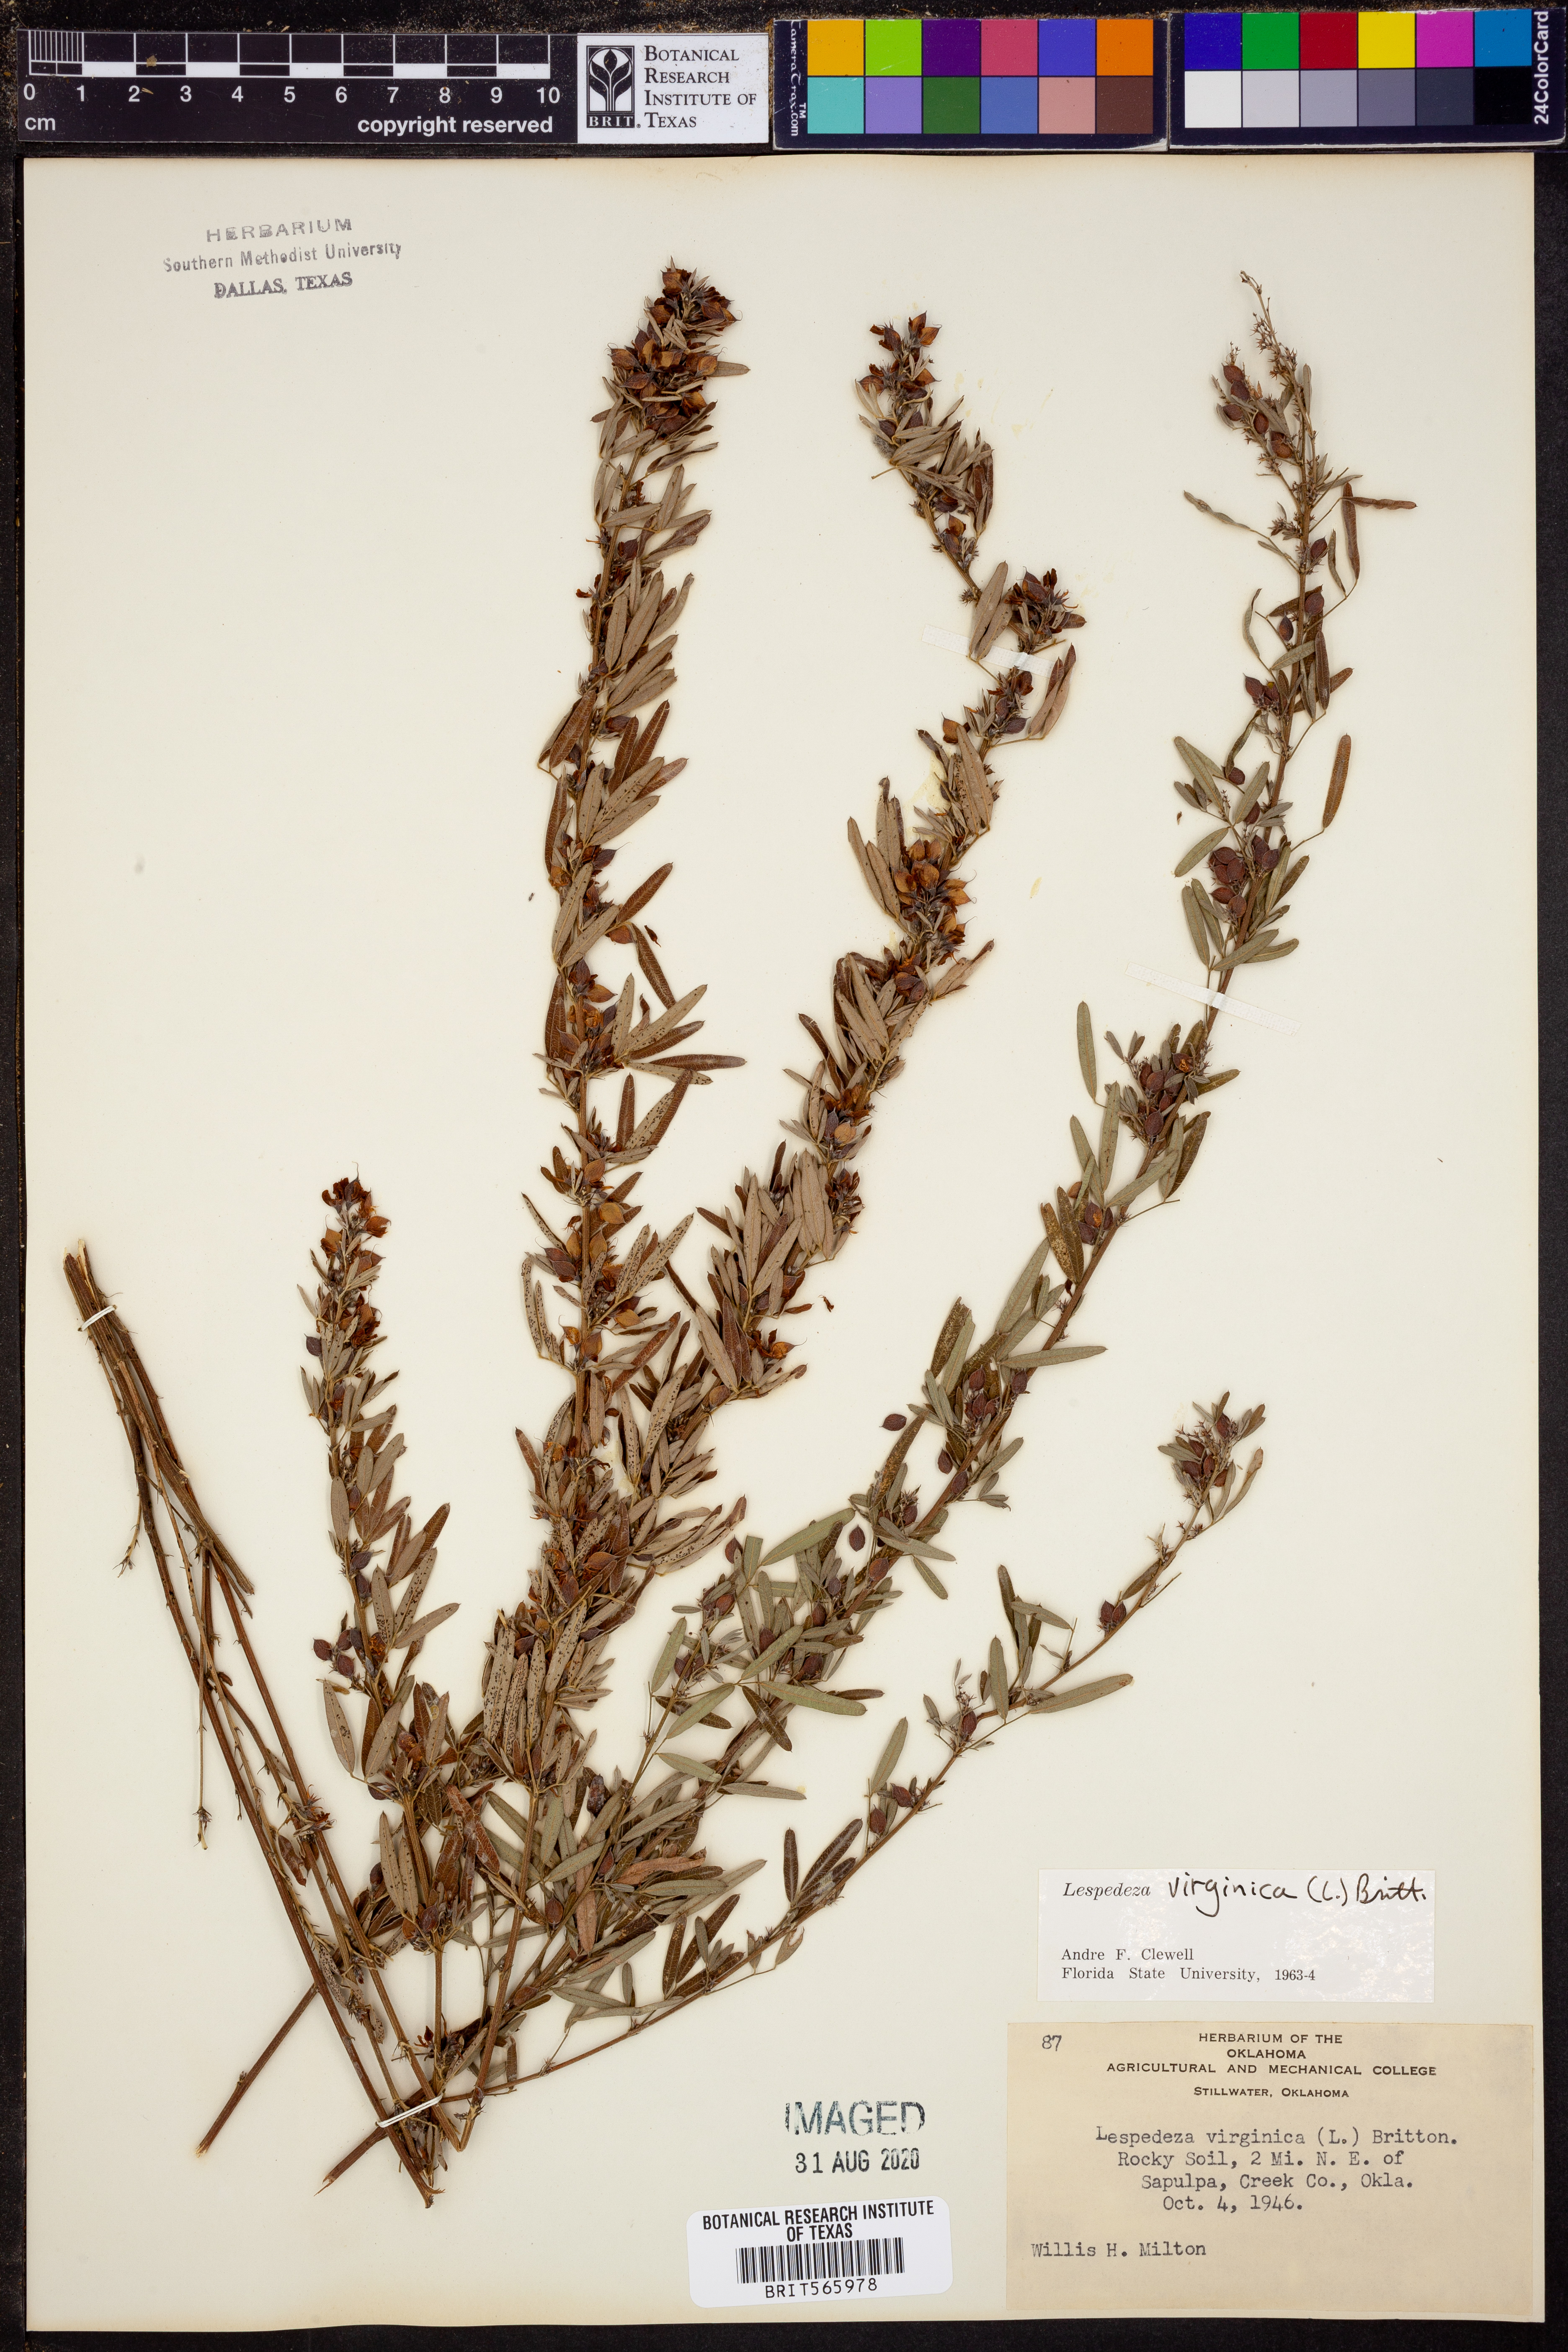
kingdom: Plantae
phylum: Tracheophyta
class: Magnoliopsida
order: Fabales
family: Fabaceae
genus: Lespedeza
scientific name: Lespedeza virginica
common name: Slender bush-clover
